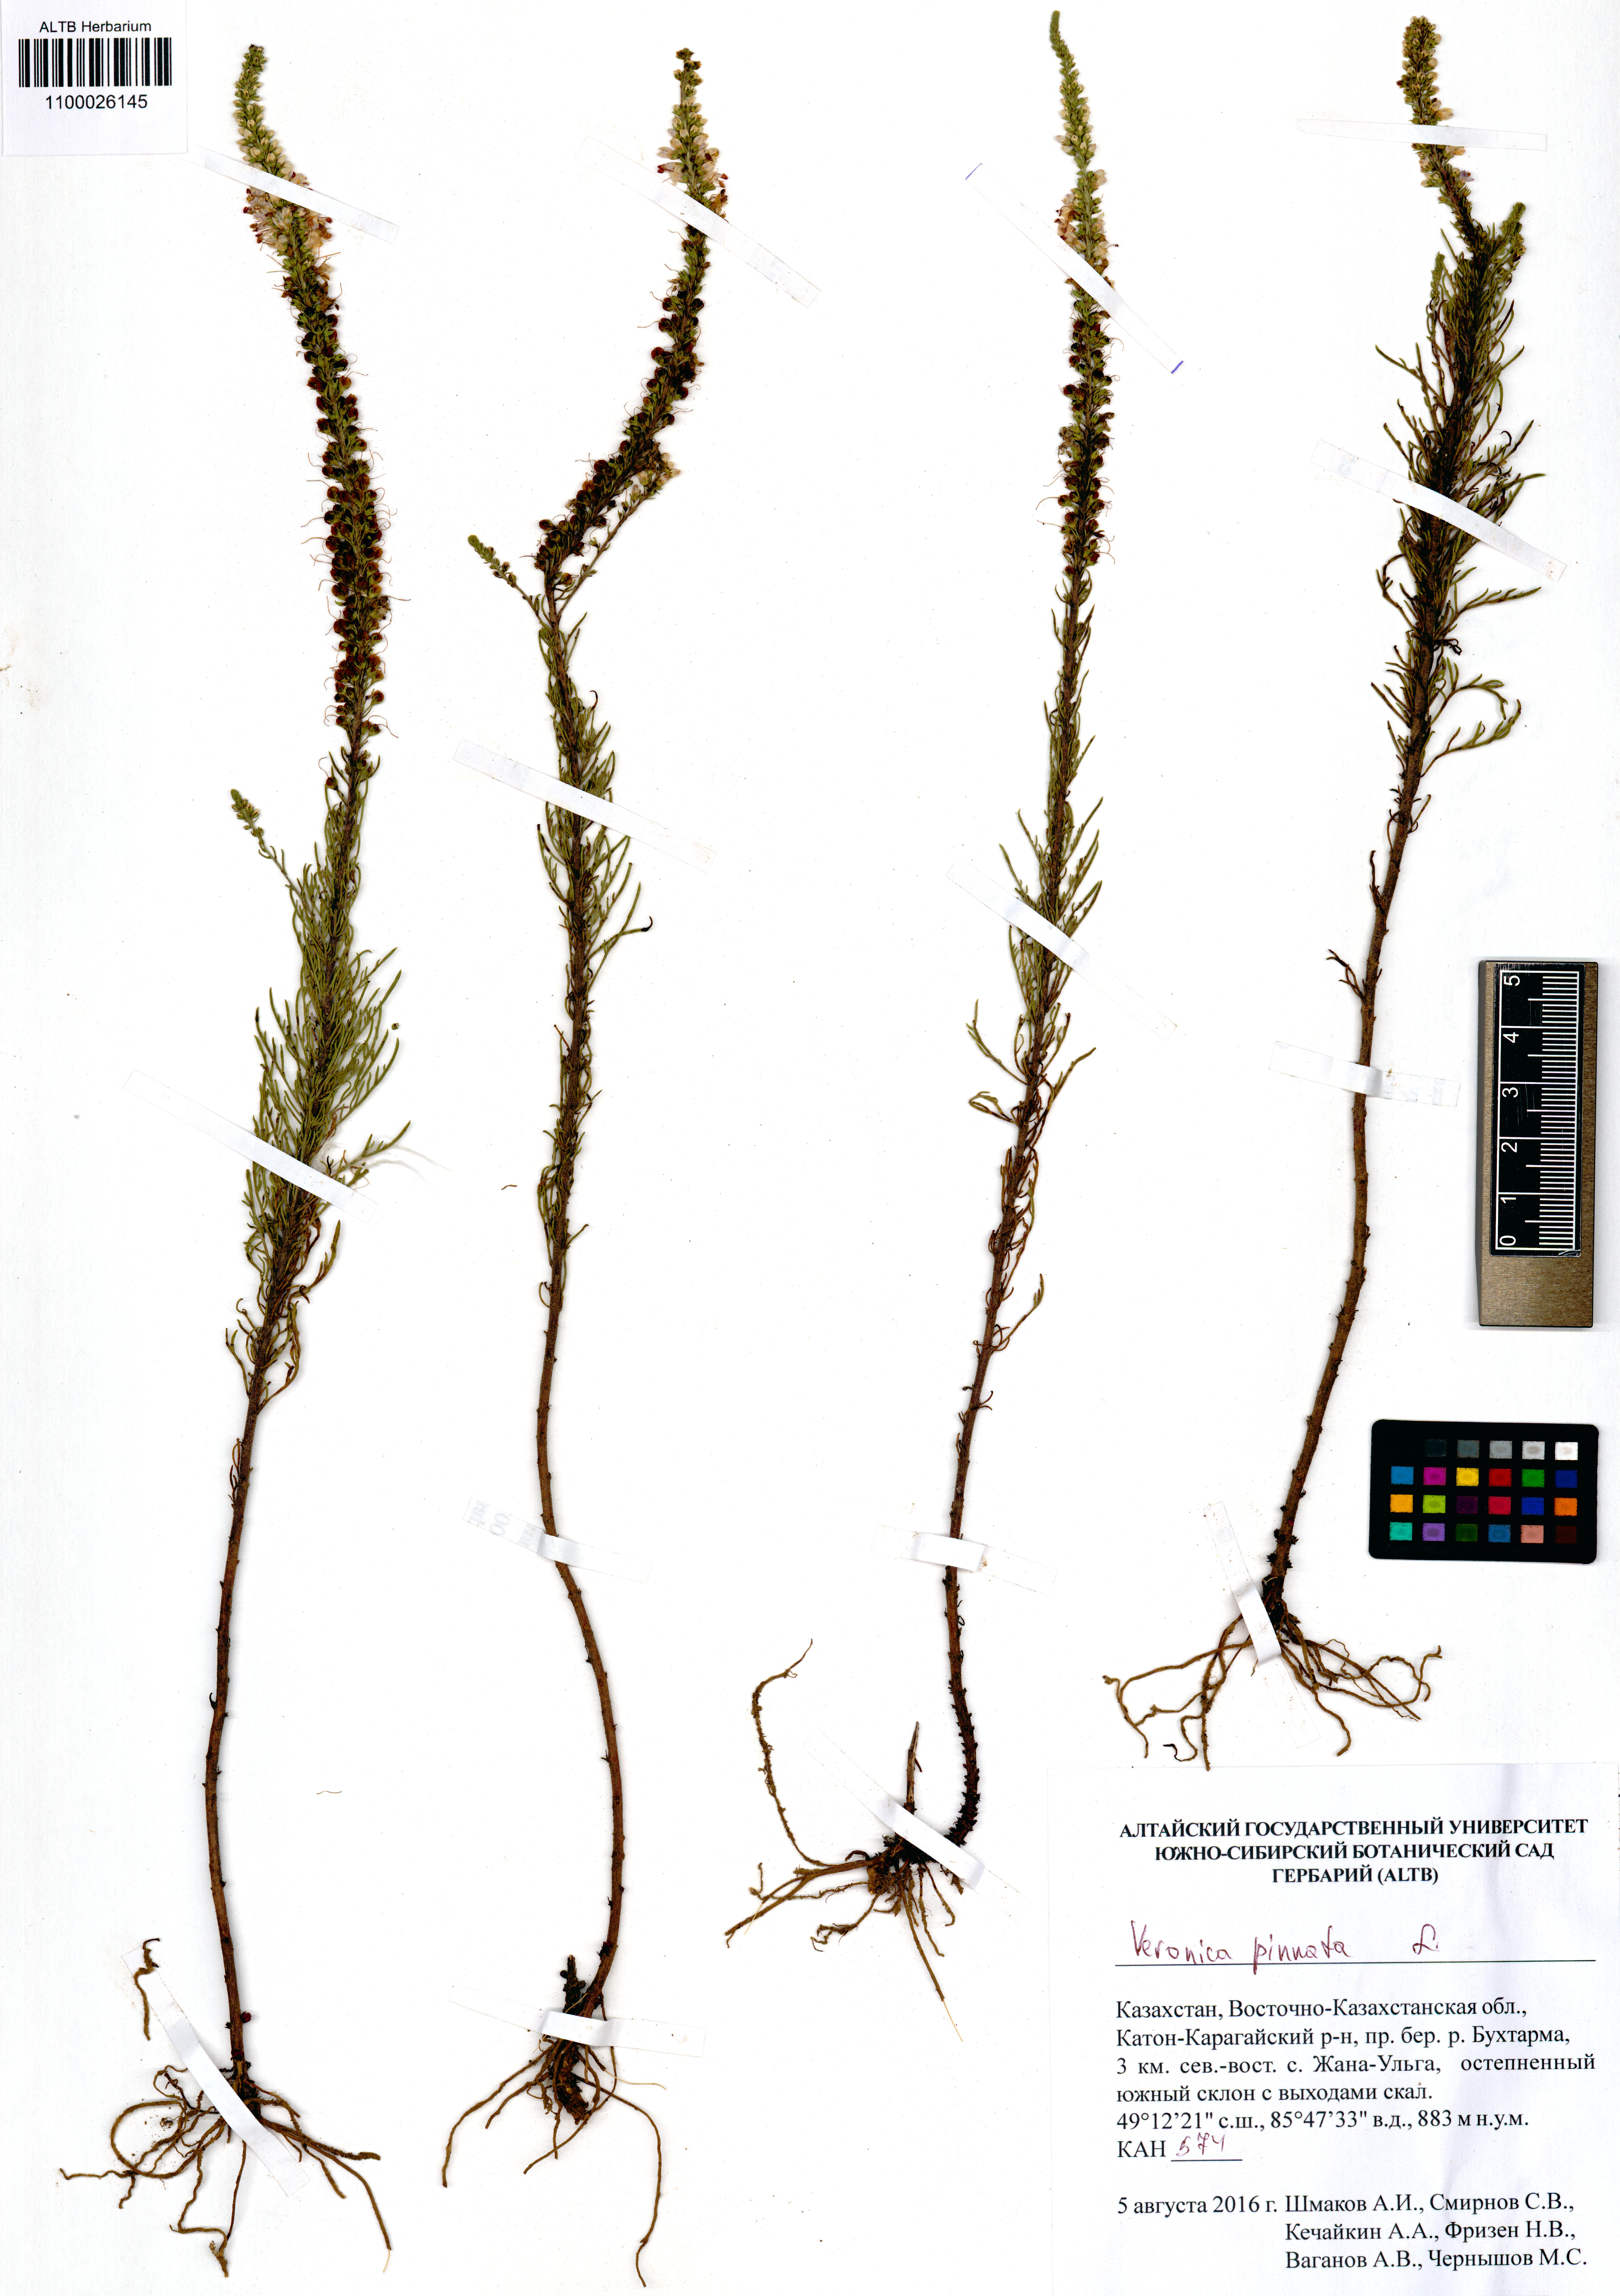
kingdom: Plantae
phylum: Tracheophyta
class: Magnoliopsida
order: Lamiales
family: Plantaginaceae
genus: Veronica
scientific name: Veronica pinnata
